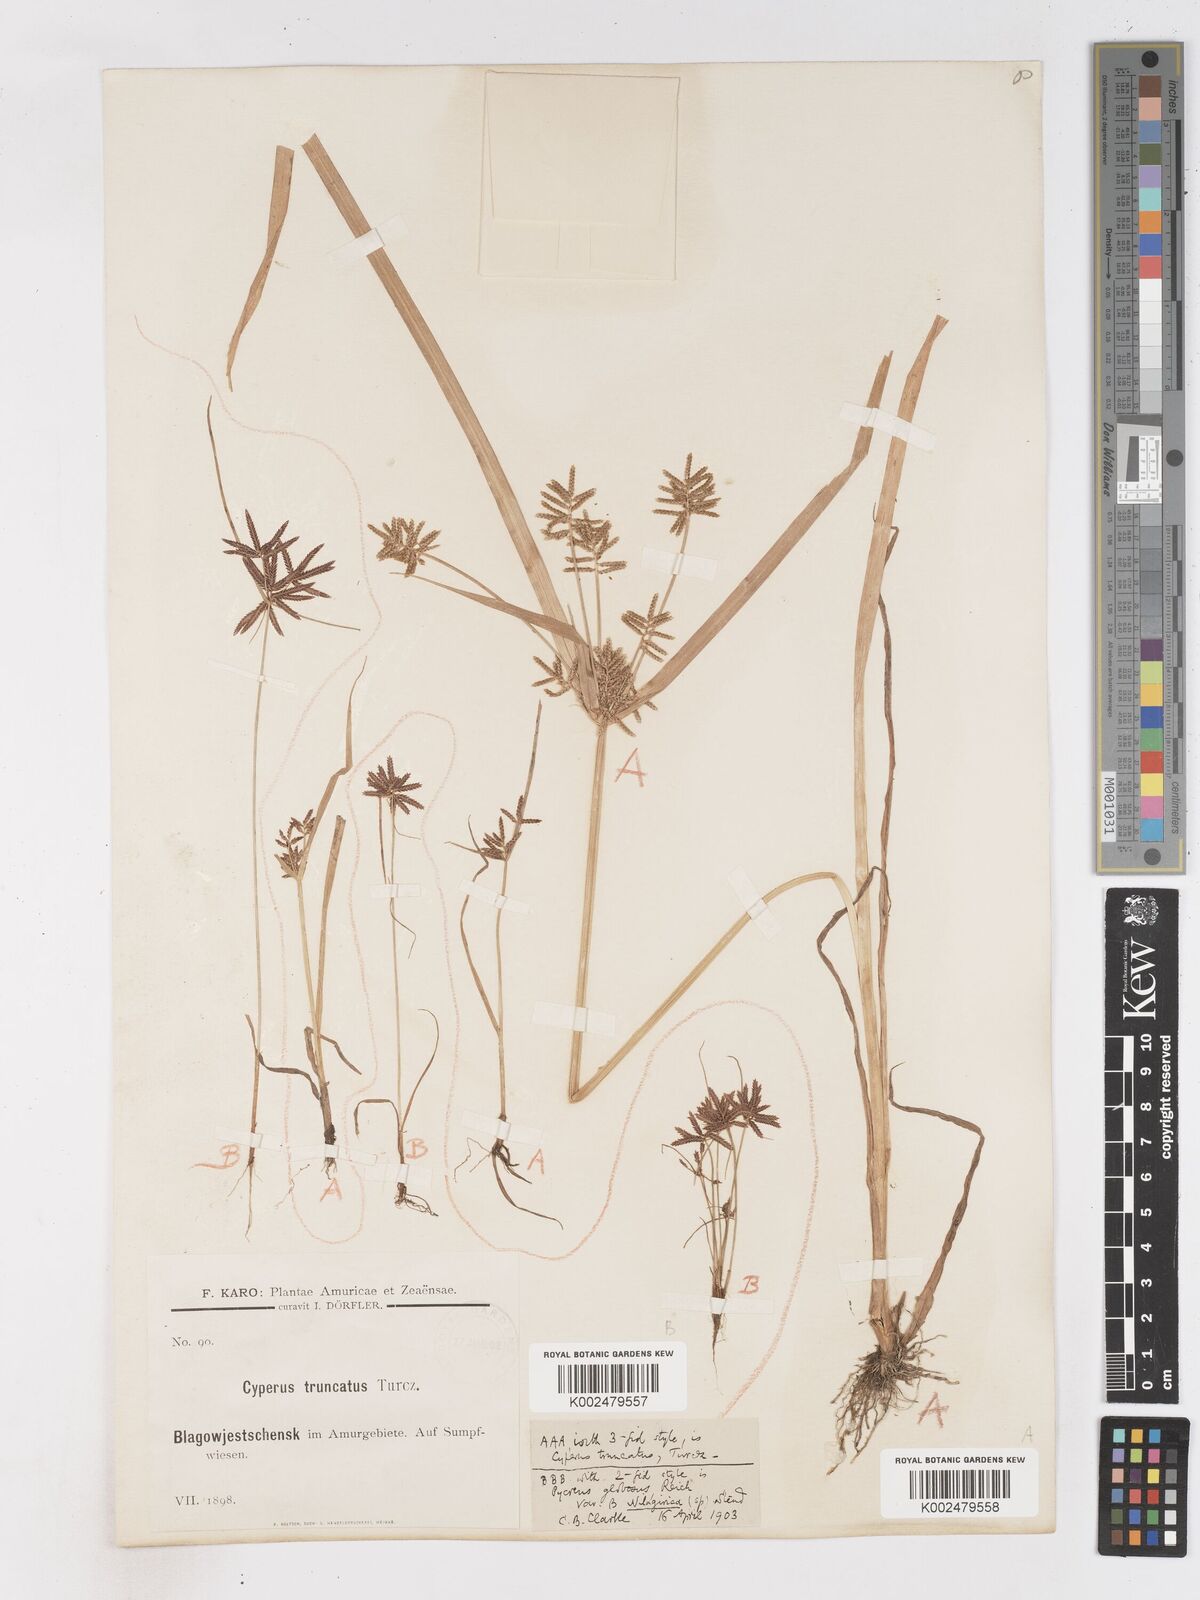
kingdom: Plantae
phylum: Tracheophyta
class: Liliopsida
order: Poales
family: Cyperaceae
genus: Cyperus
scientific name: Cyperus orthostachyus
